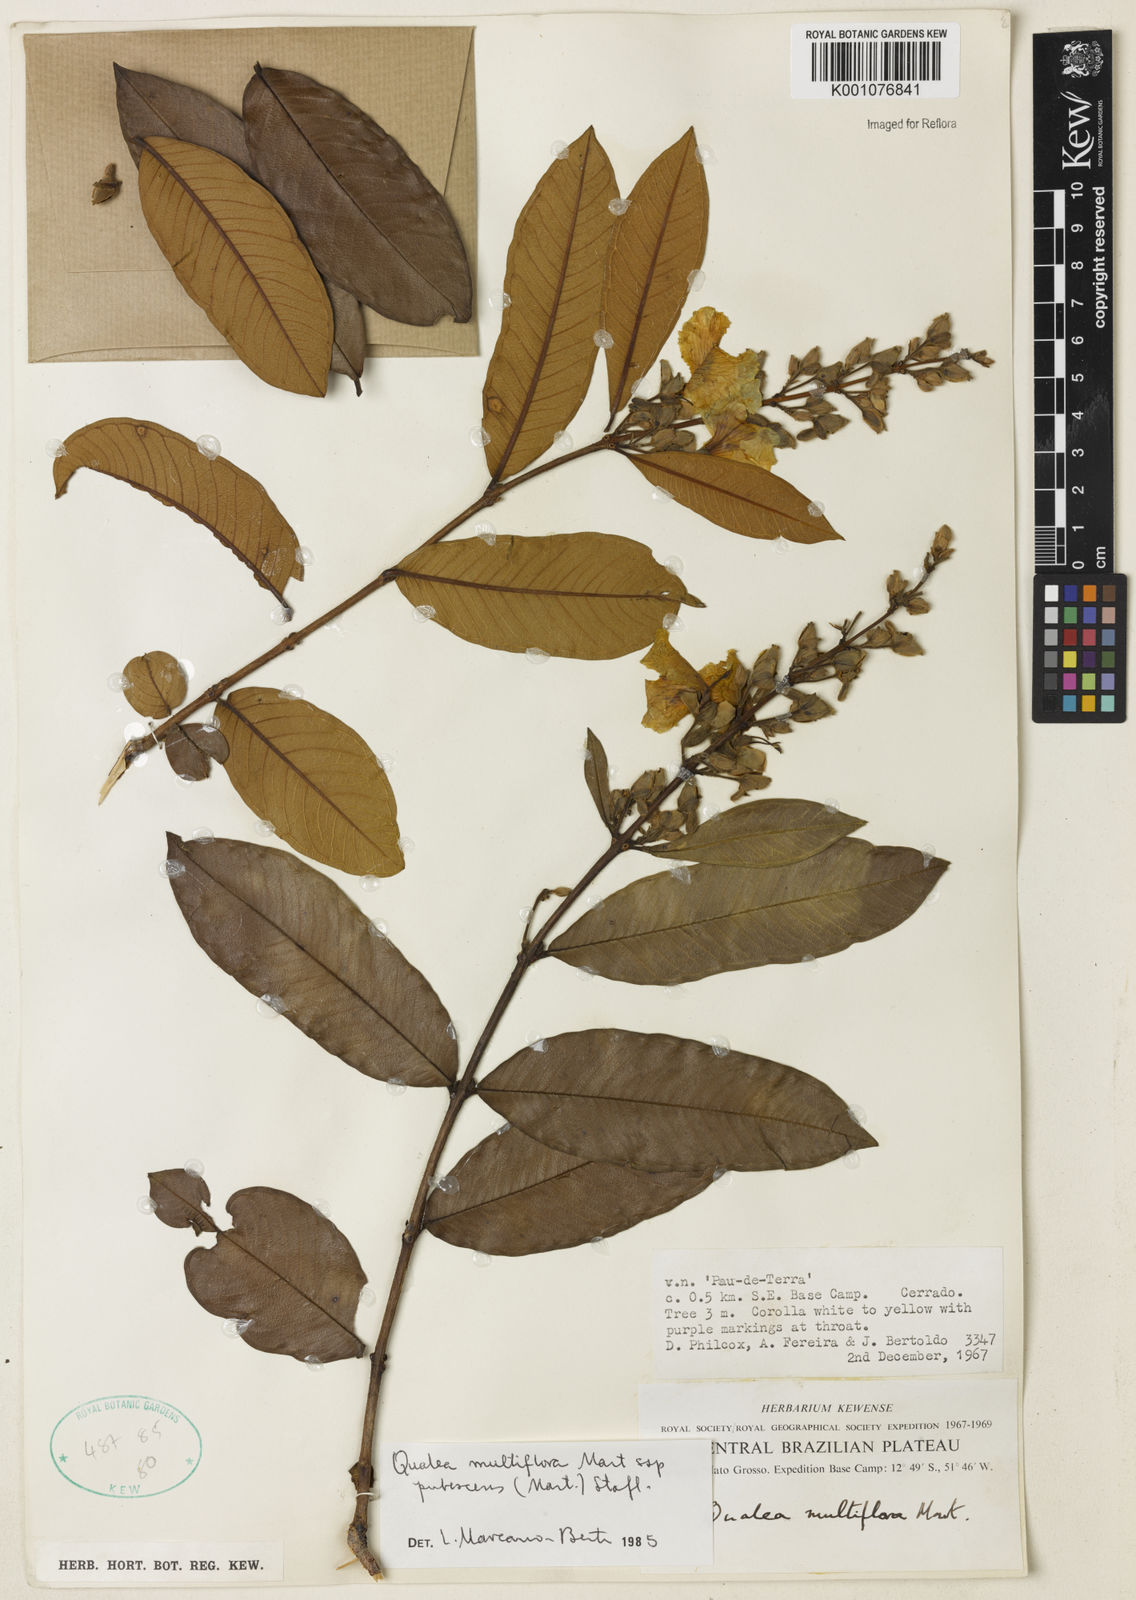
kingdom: Plantae
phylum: Tracheophyta
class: Magnoliopsida
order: Myrtales
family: Vochysiaceae
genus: Qualea
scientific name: Qualea multiflora
